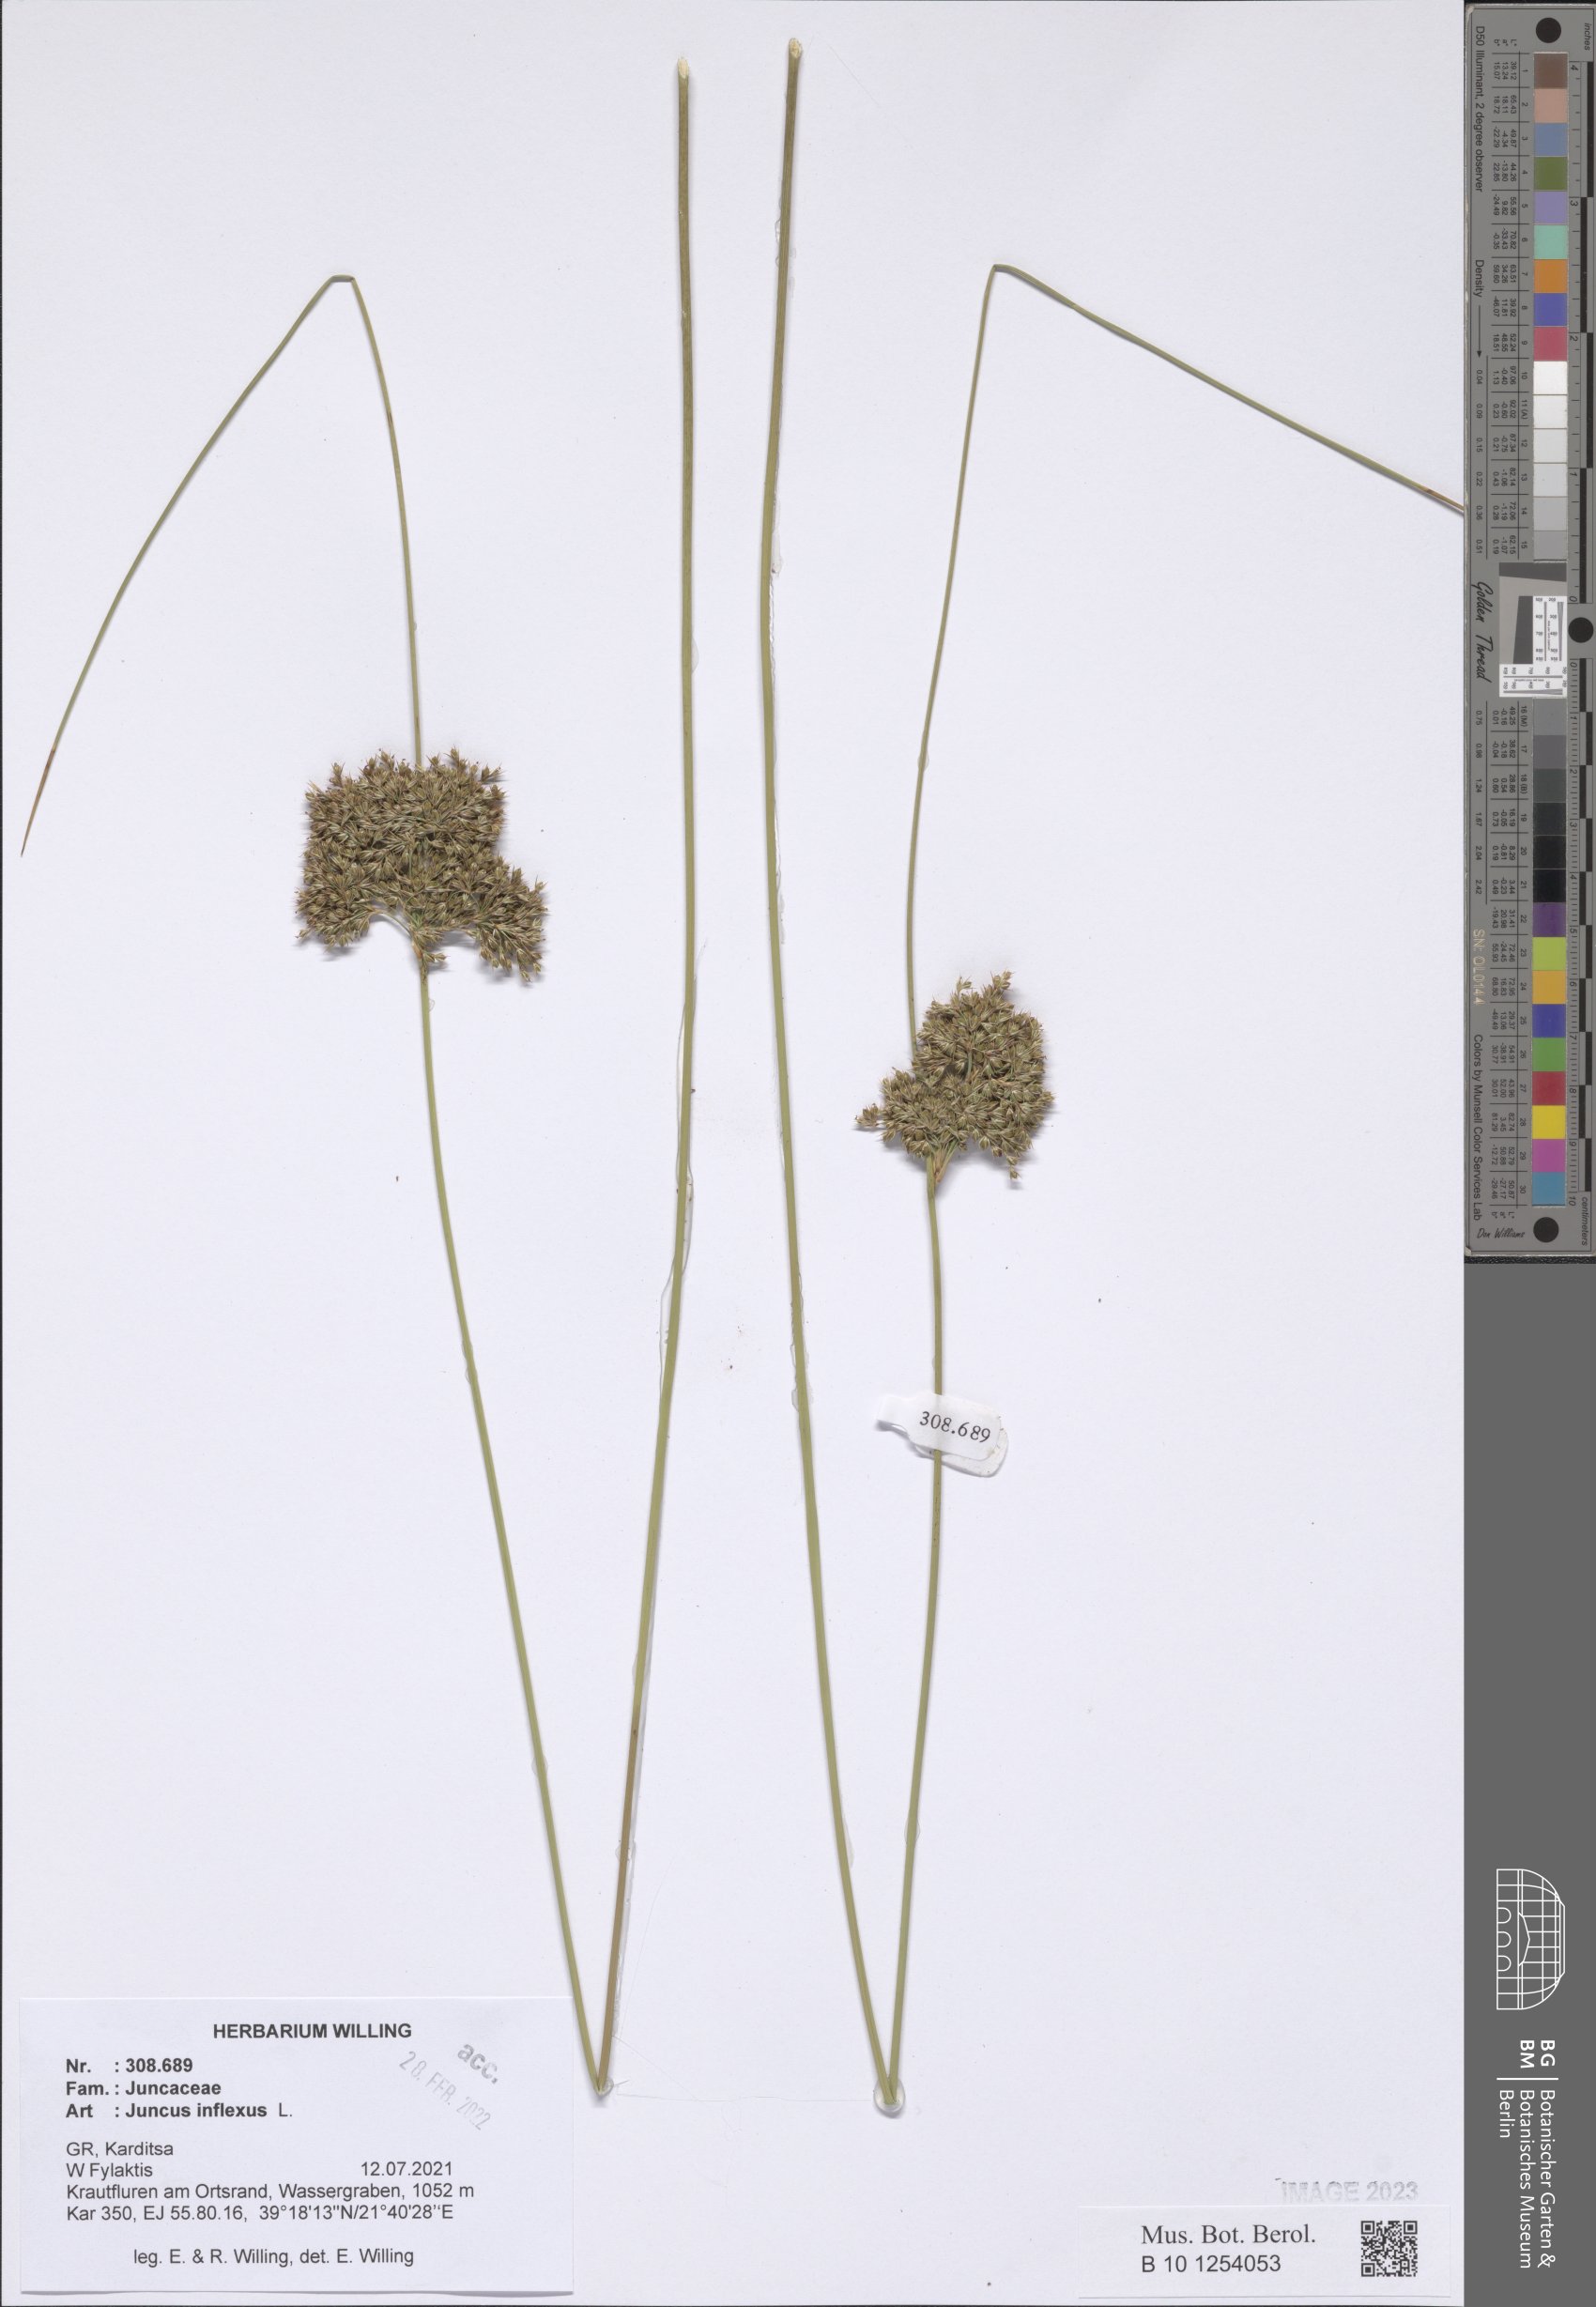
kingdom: Plantae
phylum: Tracheophyta
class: Liliopsida
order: Poales
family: Juncaceae
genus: Juncus
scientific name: Juncus inflexus
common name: Hard rush
